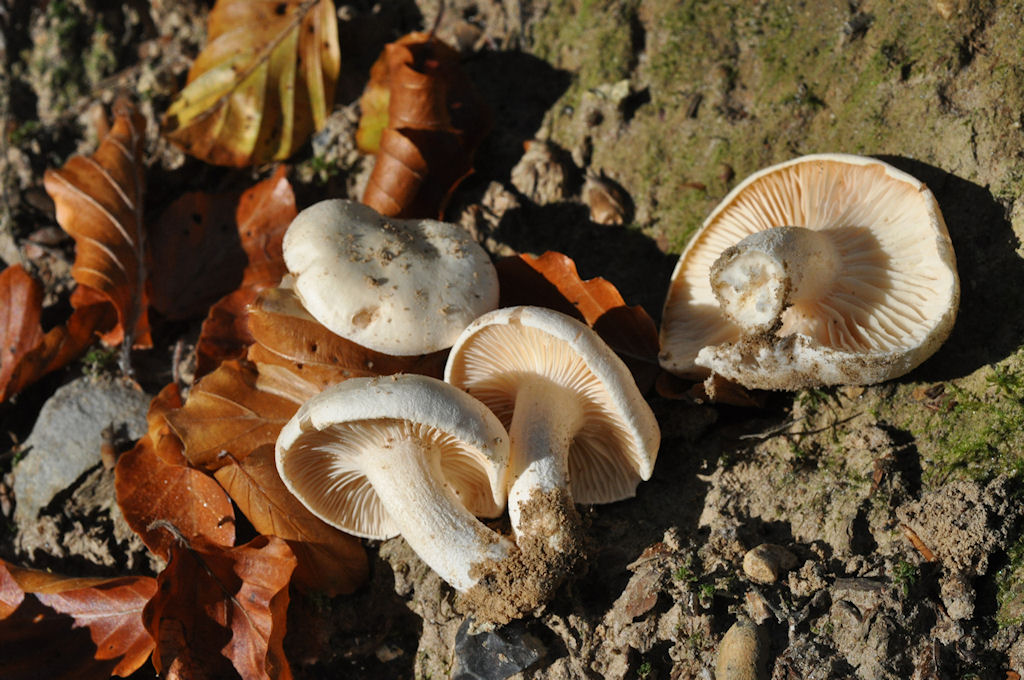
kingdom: Fungi
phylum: Basidiomycota
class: Agaricomycetes
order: Agaricales
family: Hygrophoraceae
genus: Hygrophorus
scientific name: Hygrophorus penarius
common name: spiselig sneglehat
